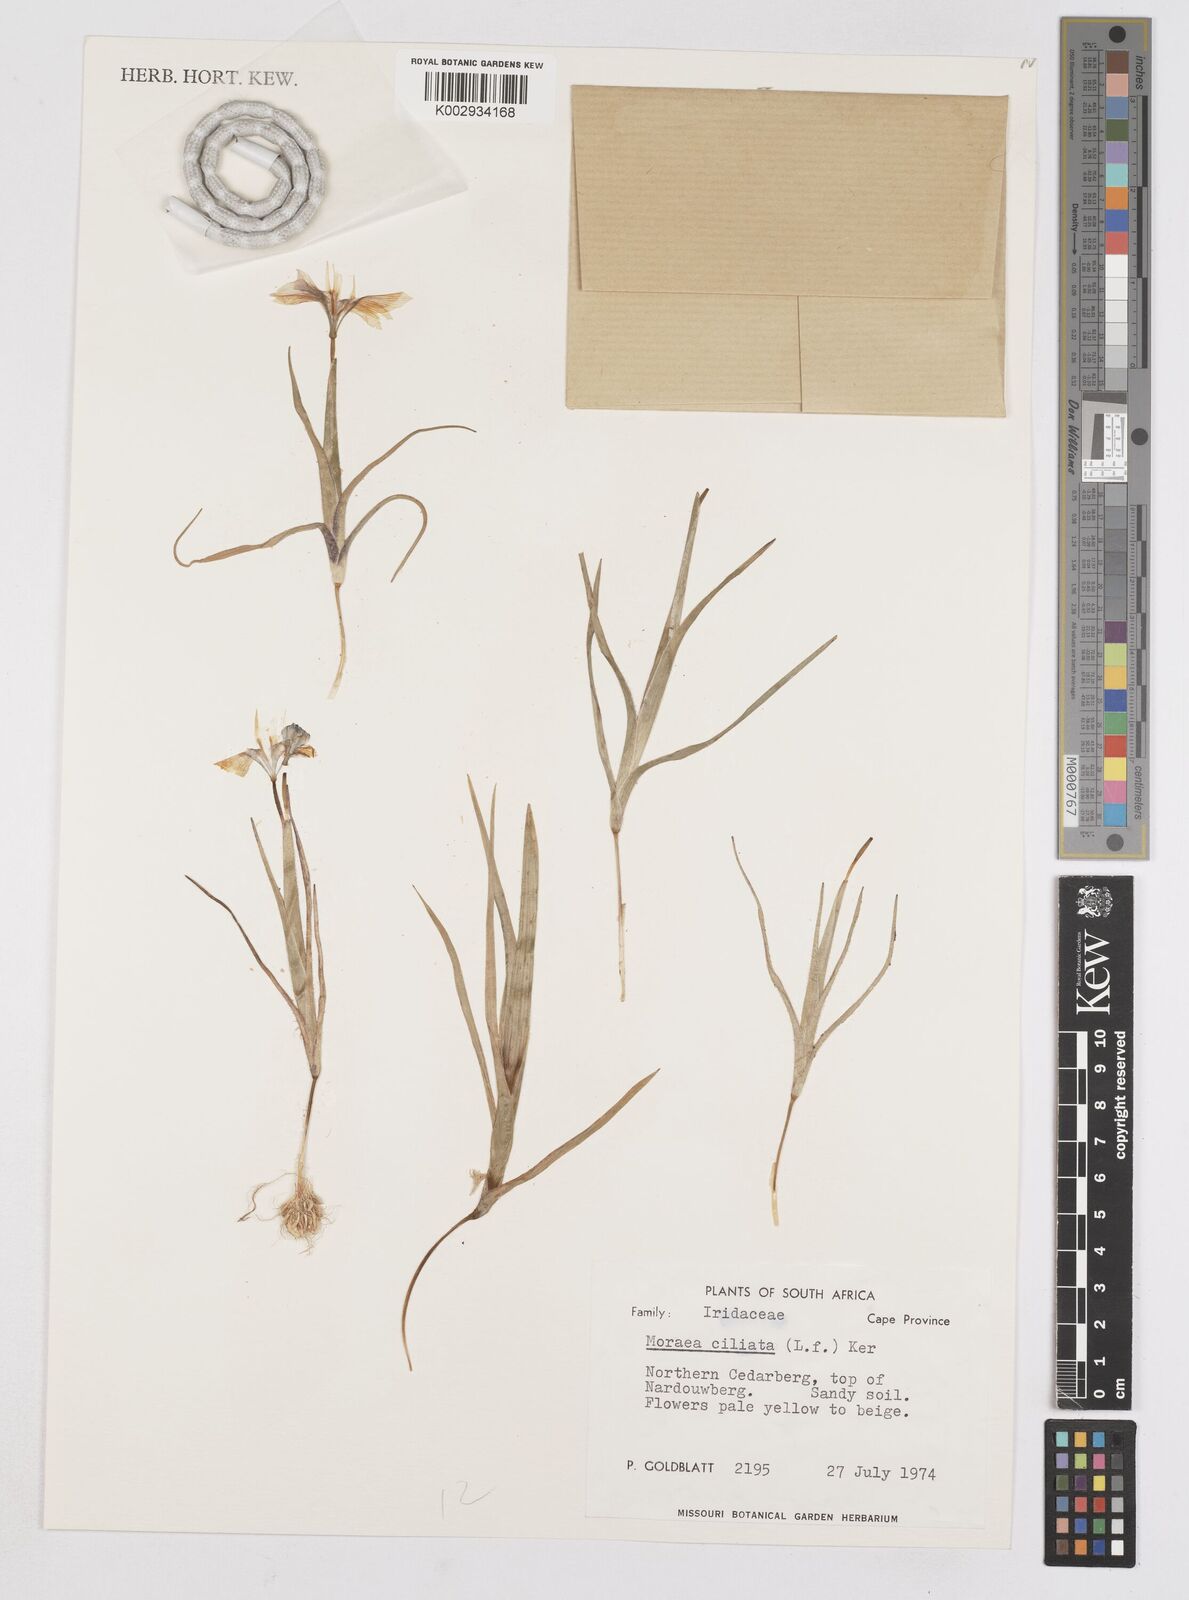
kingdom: Plantae
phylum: Tracheophyta
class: Liliopsida
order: Asparagales
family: Iridaceae
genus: Moraea
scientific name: Moraea ciliata
